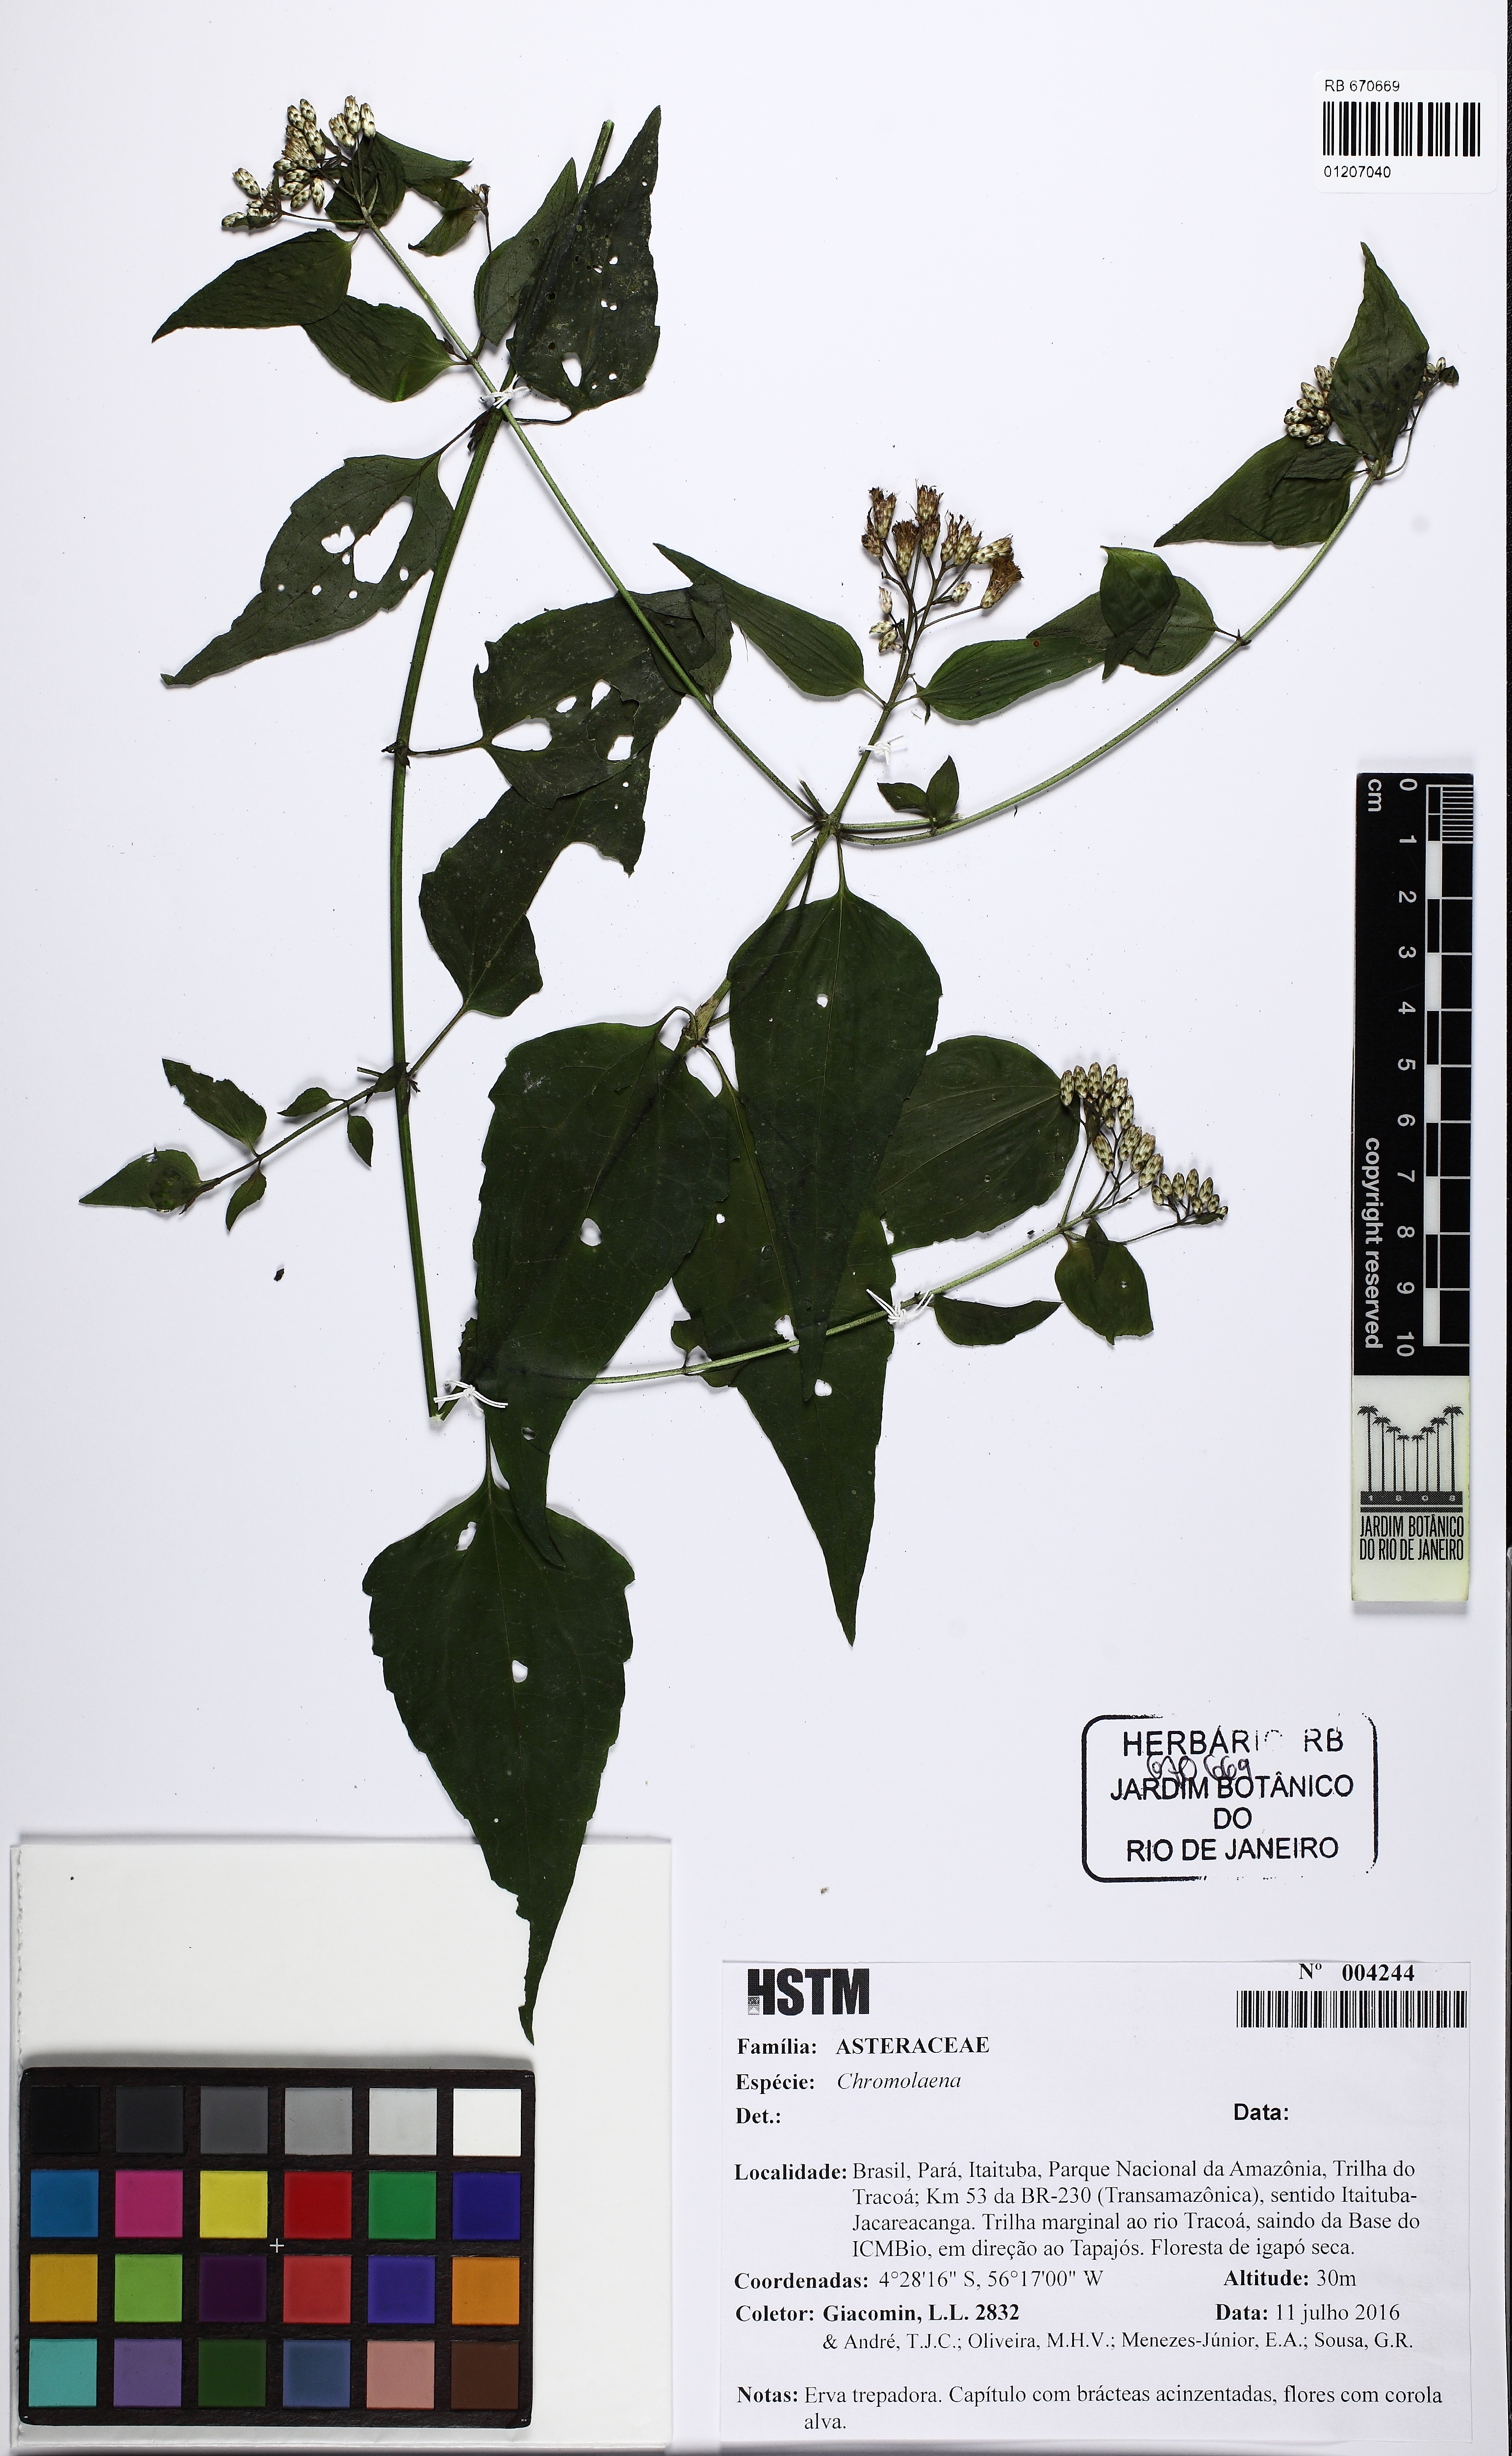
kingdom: Plantae
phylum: Tracheophyta
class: Magnoliopsida
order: Asterales
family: Asteraceae
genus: Chromolaena
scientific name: Chromolaena
